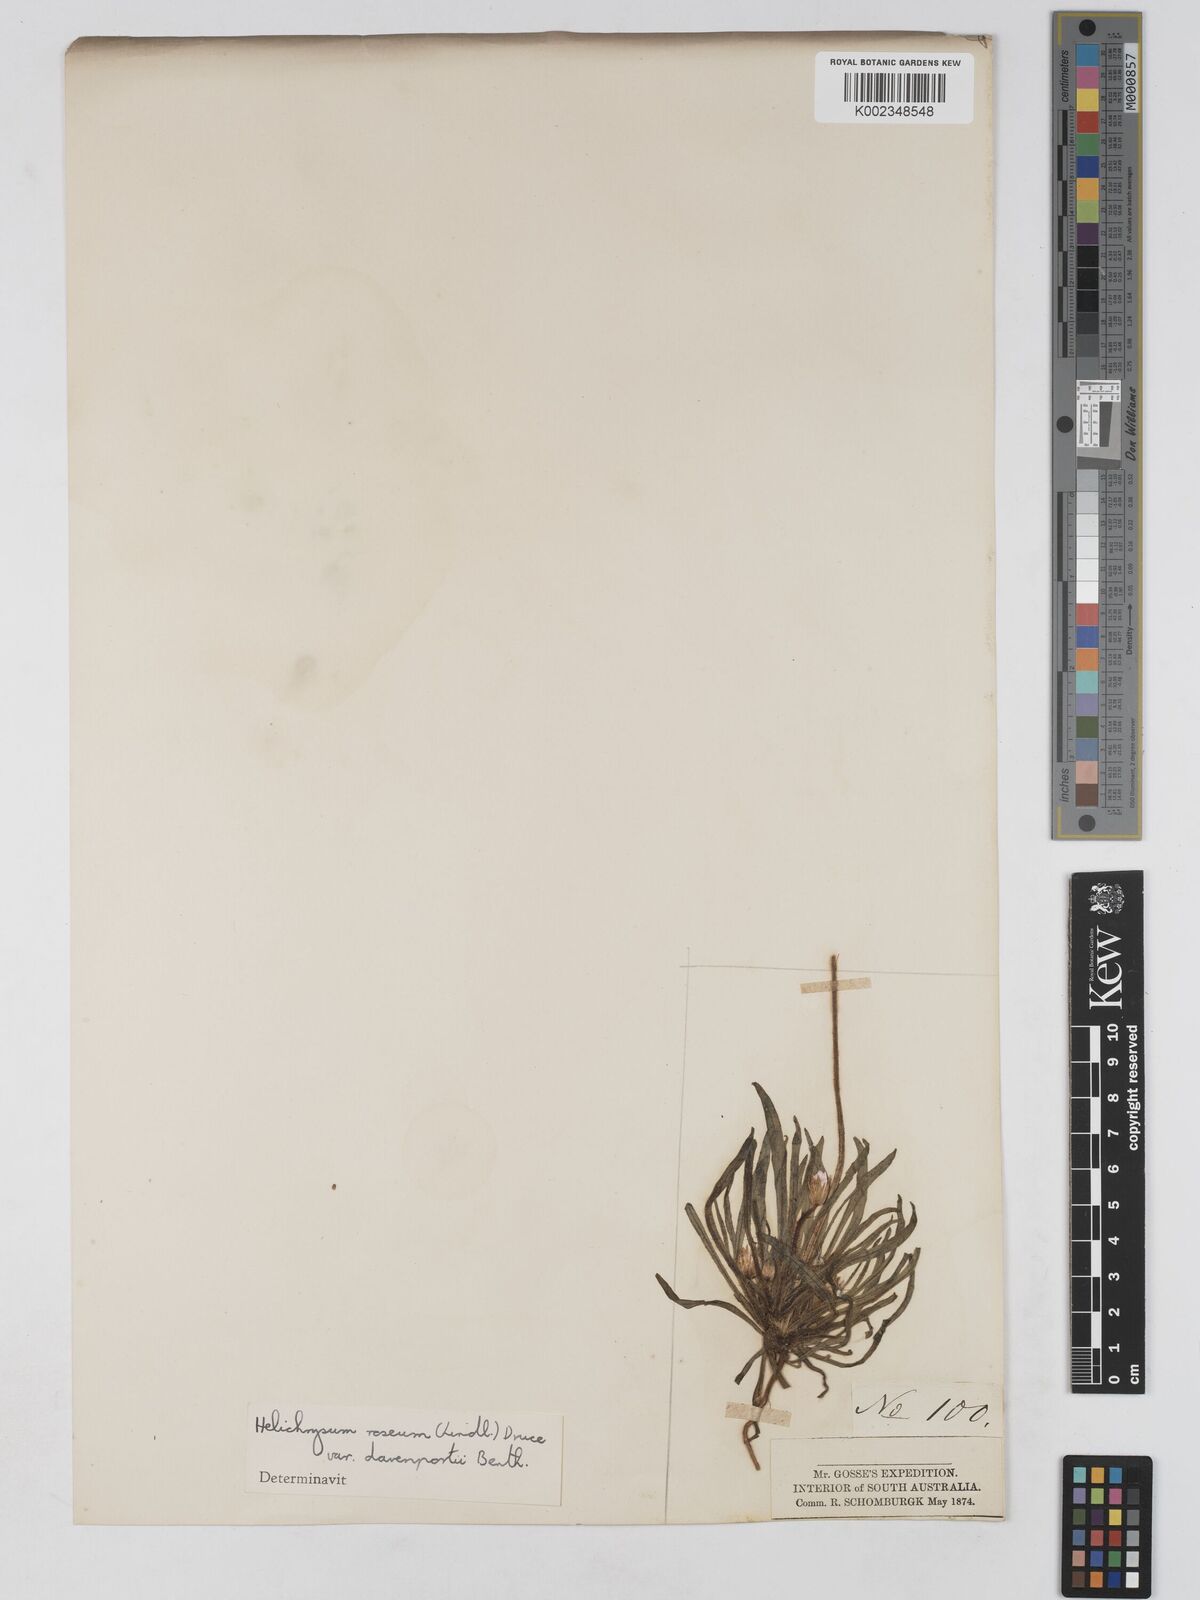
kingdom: Plantae
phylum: Tracheophyta
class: Magnoliopsida
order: Asterales
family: Asteraceae
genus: Lawrencella
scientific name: Lawrencella davenportii
